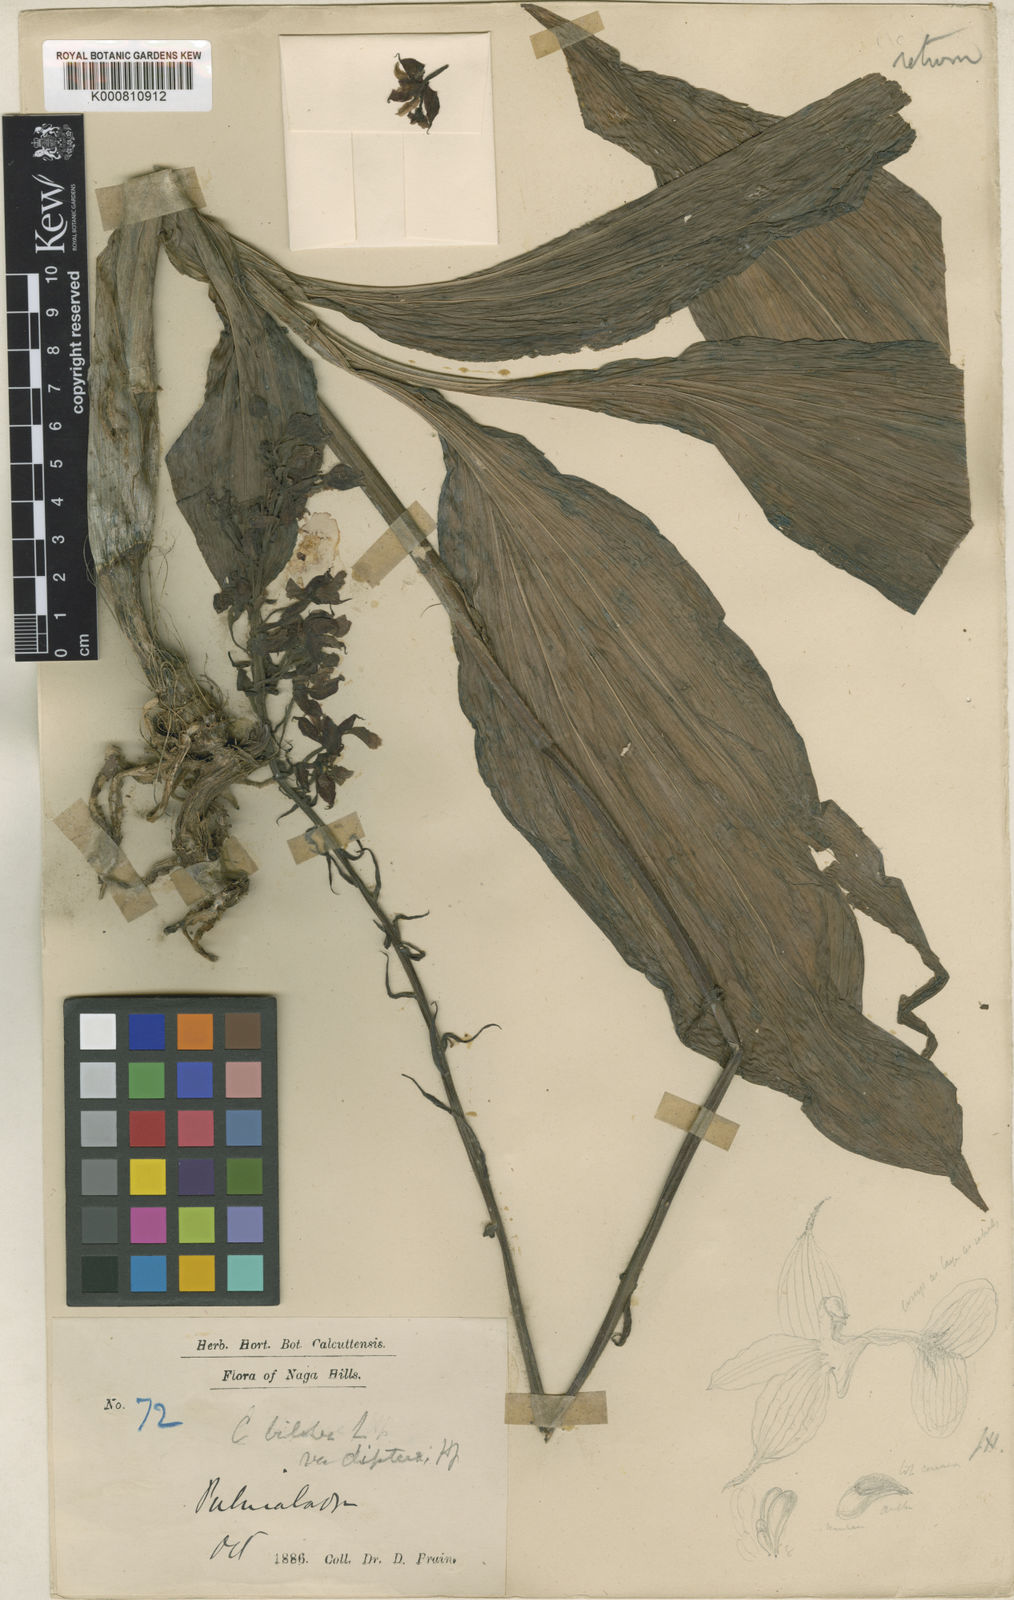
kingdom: Plantae
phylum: Tracheophyta
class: Liliopsida
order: Asparagales
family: Orchidaceae
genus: Calanthe
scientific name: Calanthe biloba
